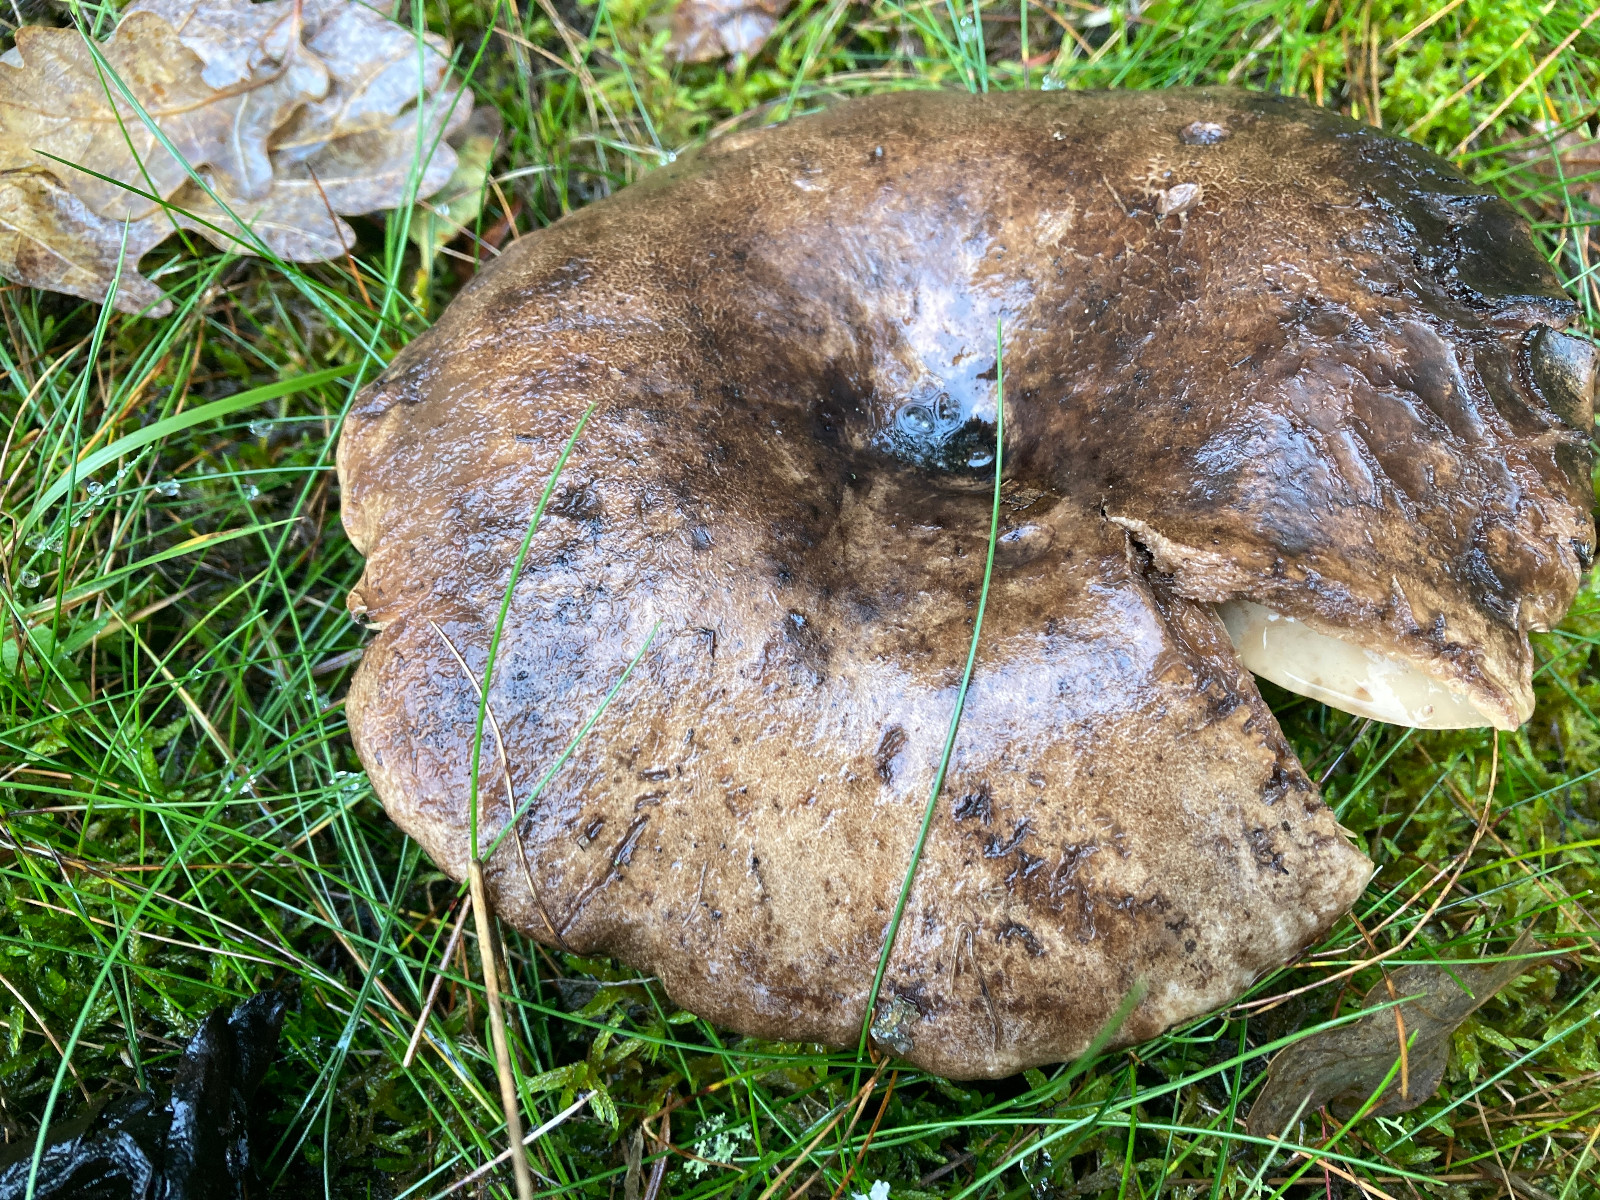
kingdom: Fungi
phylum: Basidiomycota
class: Agaricomycetes
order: Russulales
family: Russulaceae
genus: Russula
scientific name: Russula adusta
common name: sværtende skørhat
